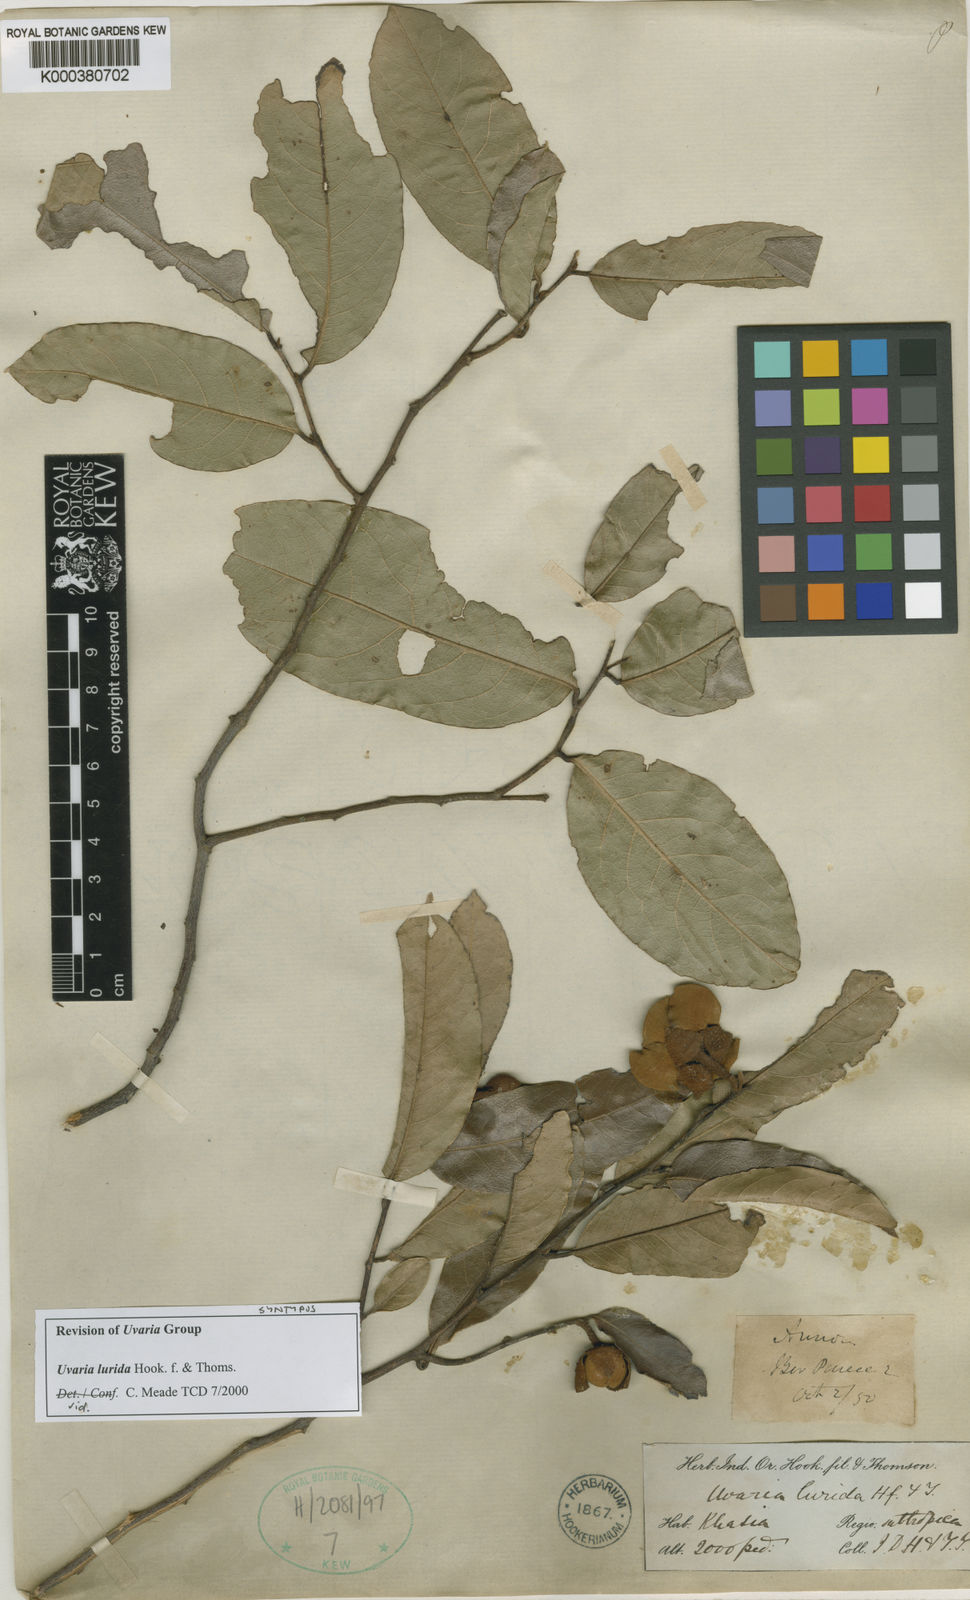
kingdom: Plantae
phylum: Tracheophyta
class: Magnoliopsida
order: Magnoliales
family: Annonaceae
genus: Uvaria
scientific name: Uvaria concava
